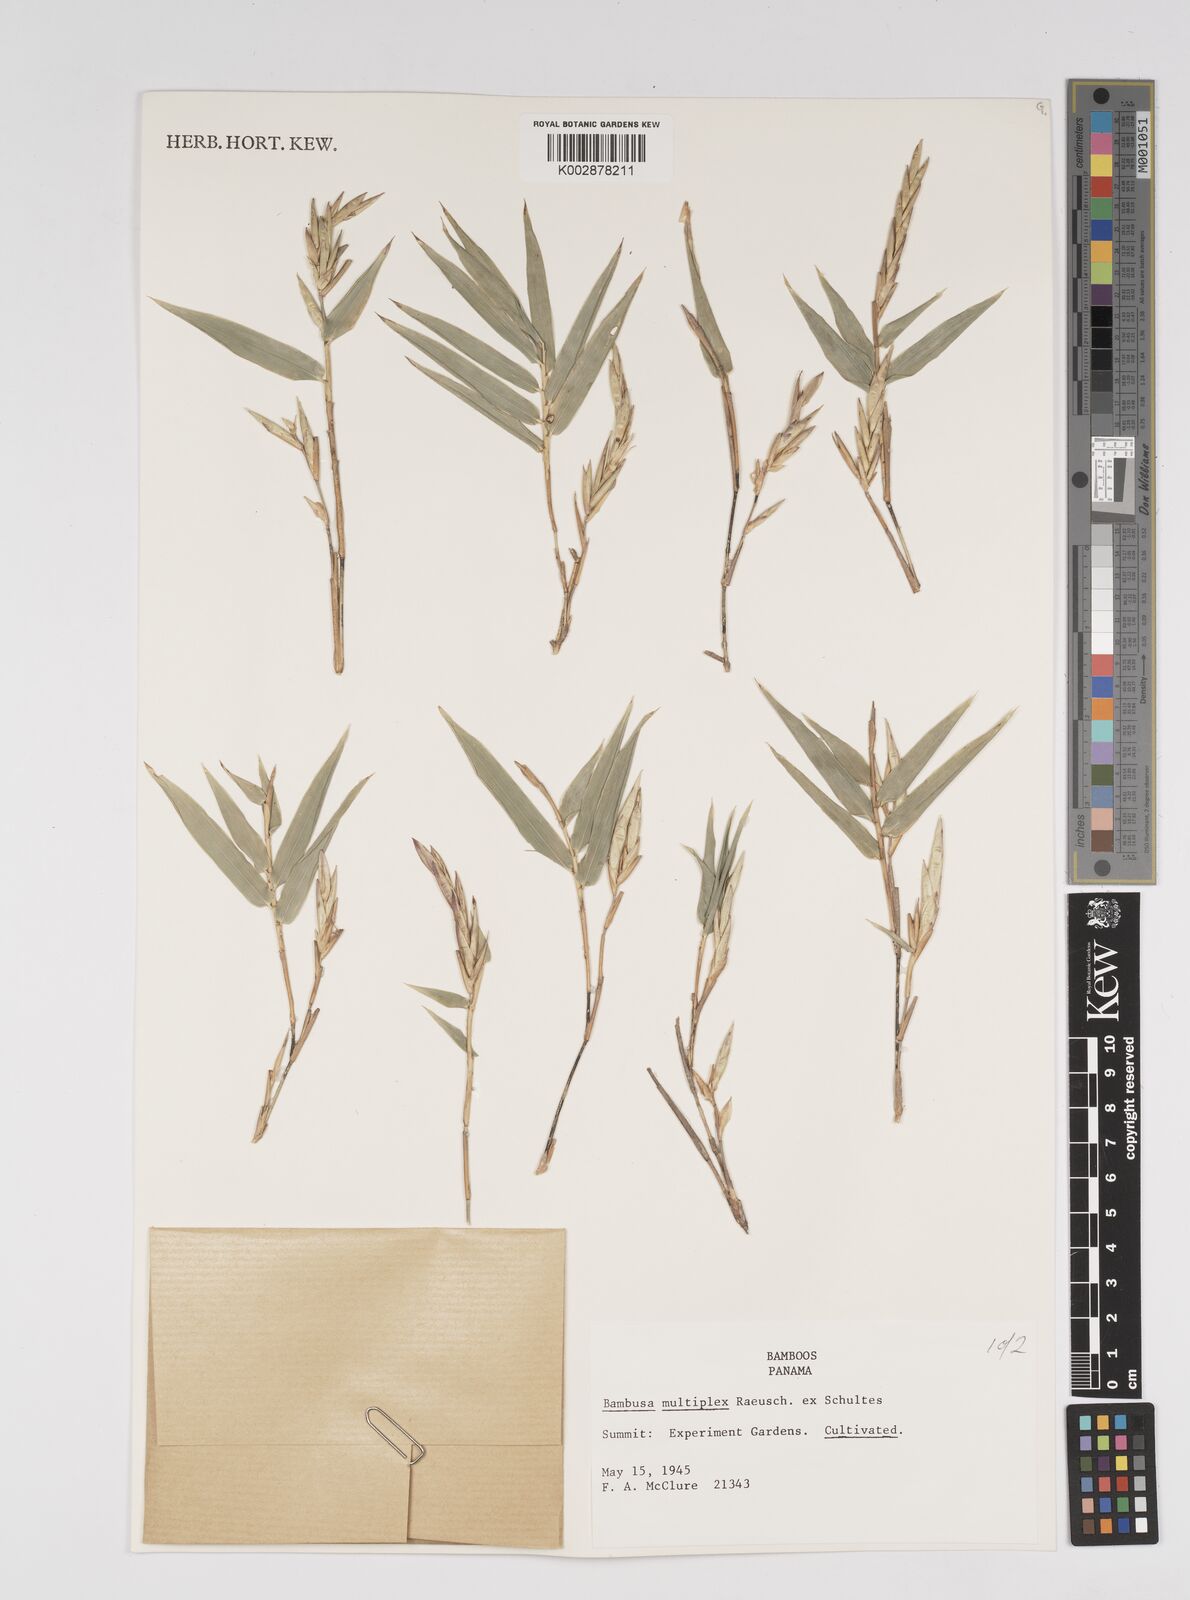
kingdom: Plantae
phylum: Tracheophyta
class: Liliopsida
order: Poales
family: Poaceae
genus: Bambusa
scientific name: Bambusa multiplex
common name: Hedge bamboo
